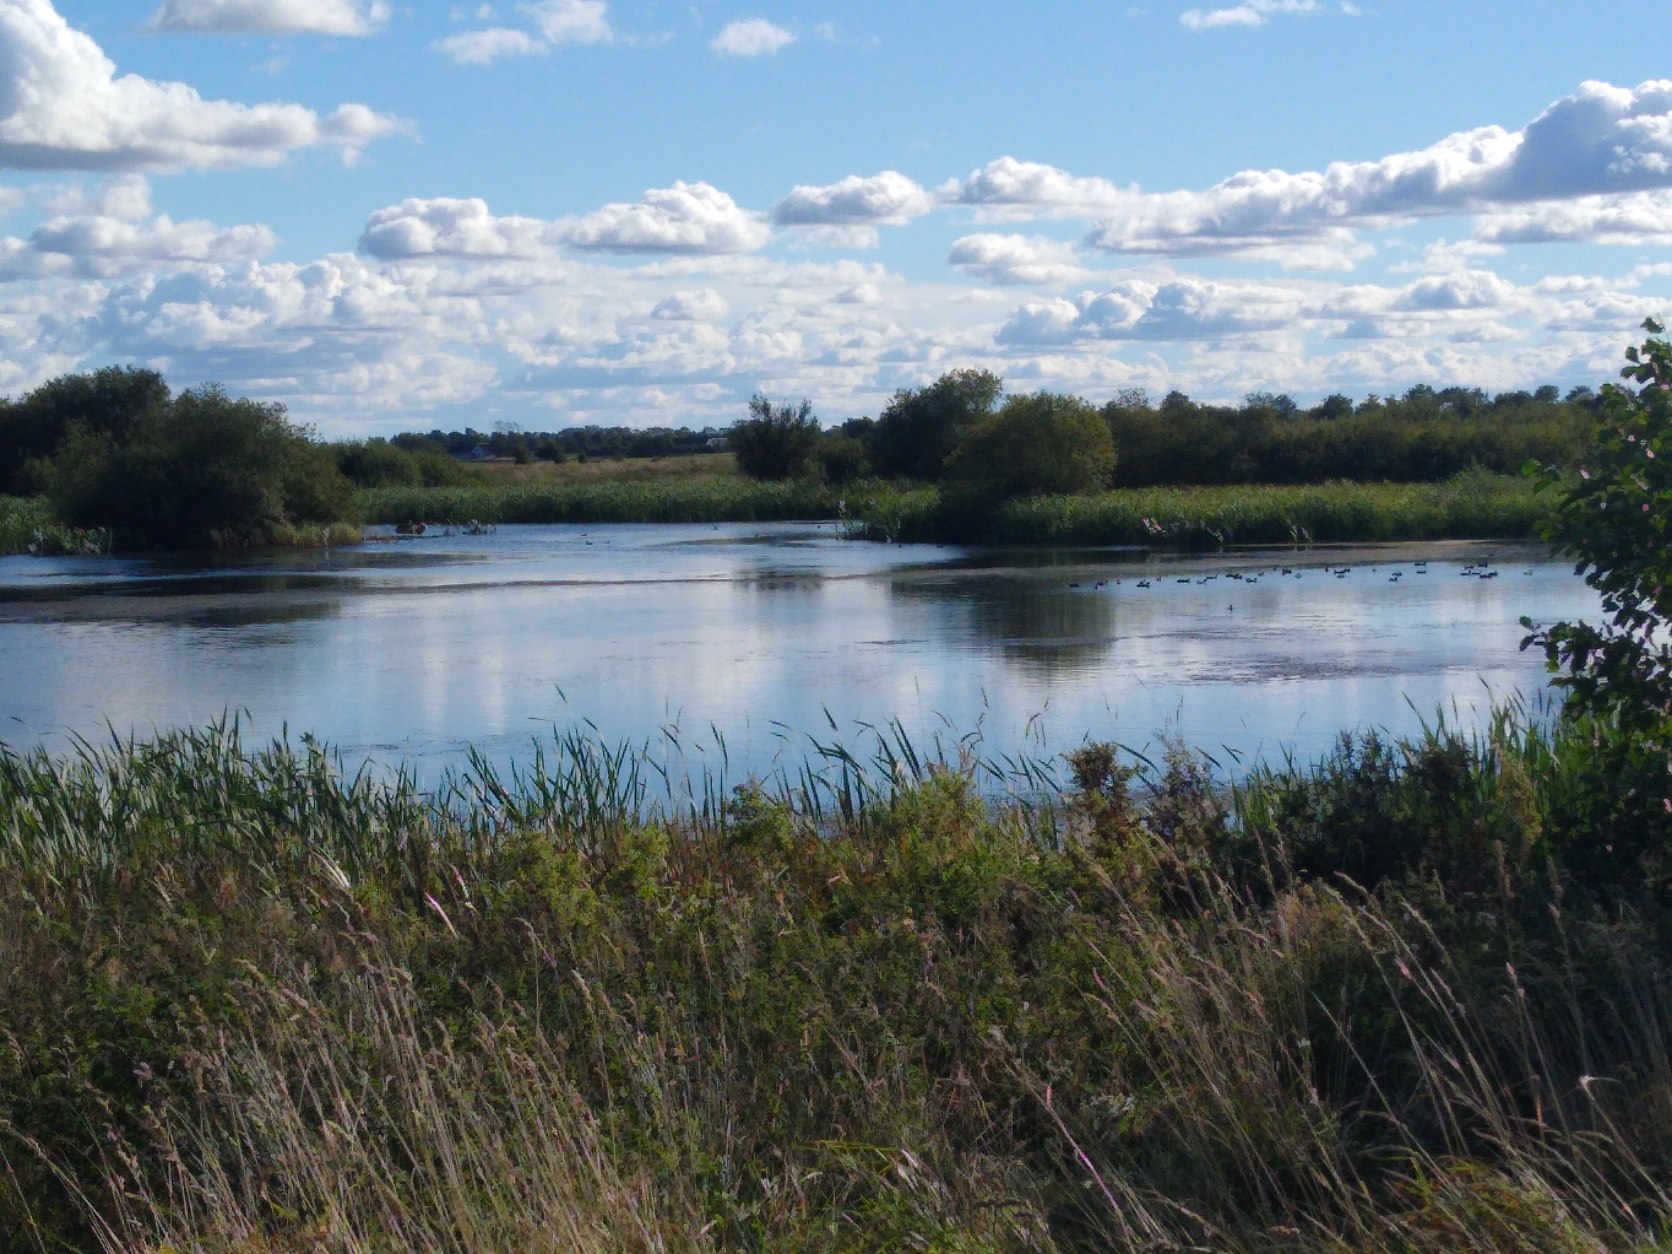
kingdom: Animalia
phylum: Chordata
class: Aves
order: Gruiformes
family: Rallidae
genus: Fulica
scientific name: Fulica atra
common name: Blishøne
